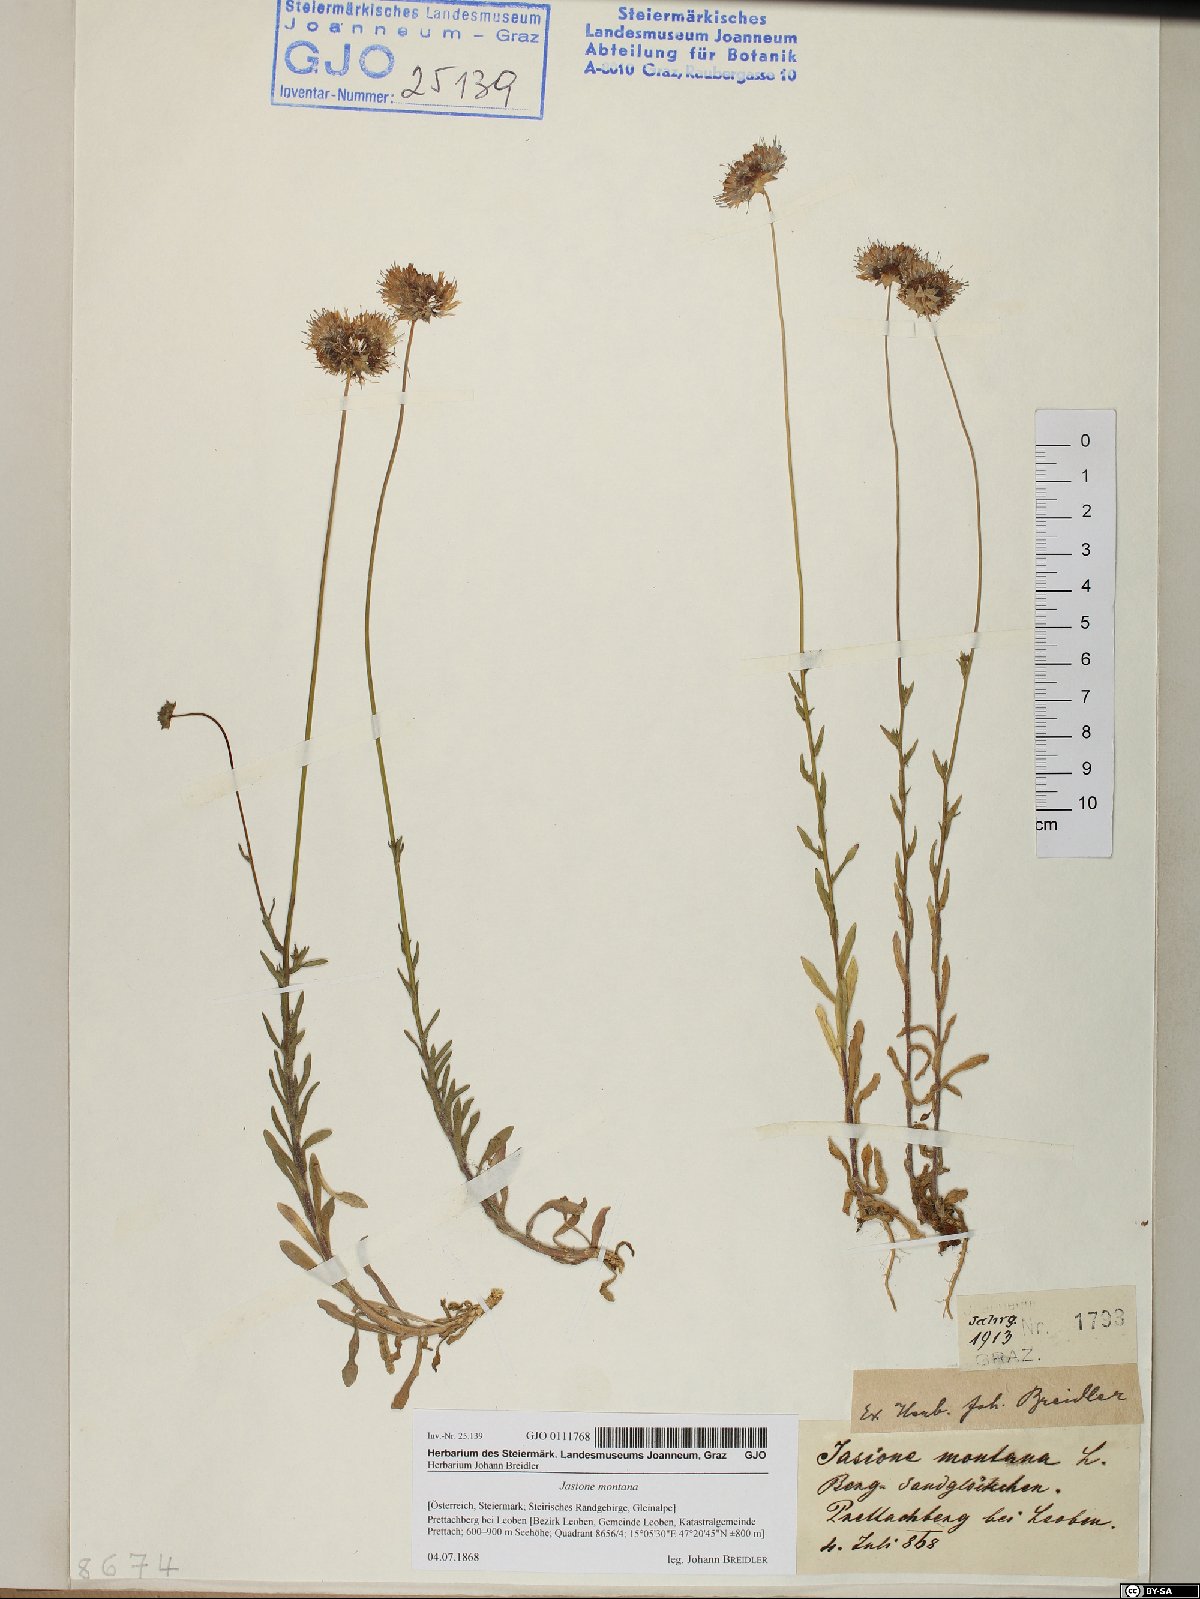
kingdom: Plantae
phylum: Tracheophyta
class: Magnoliopsida
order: Asterales
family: Campanulaceae
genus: Jasione
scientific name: Jasione montana
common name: Sheep's-bit
